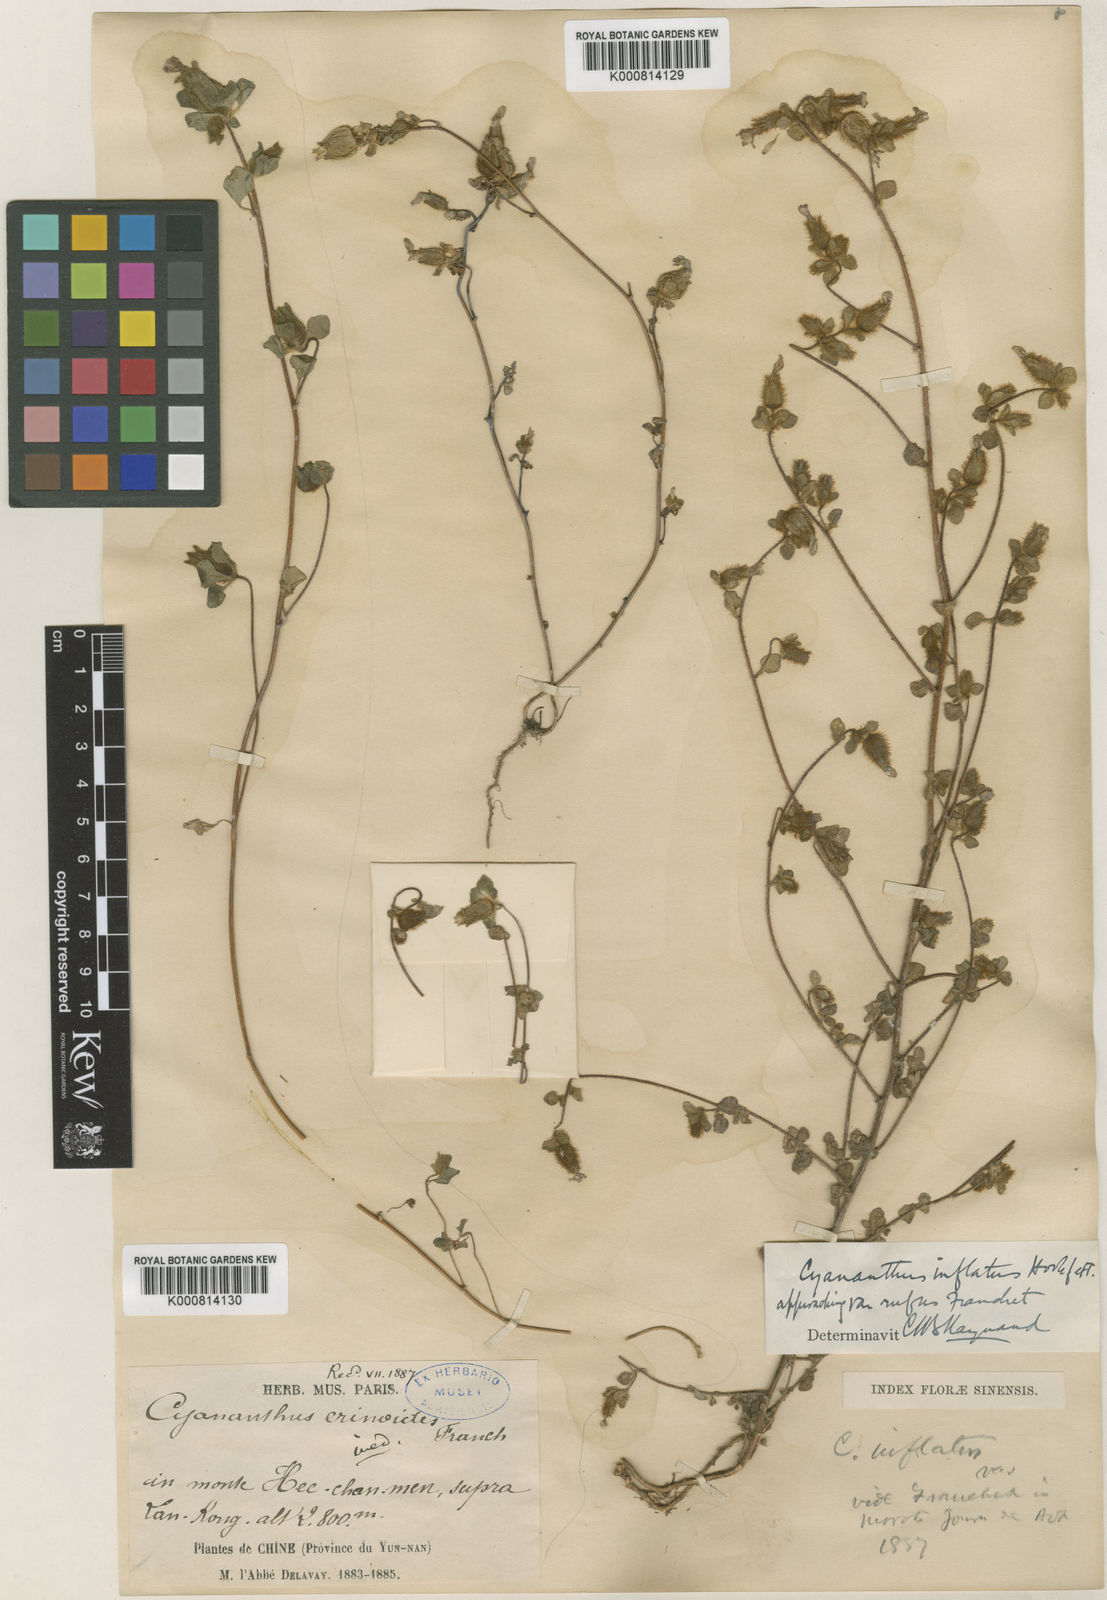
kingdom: Plantae
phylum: Tracheophyta
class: Magnoliopsida
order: Asterales
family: Campanulaceae
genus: Cyananthus
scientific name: Cyananthus inflatus
